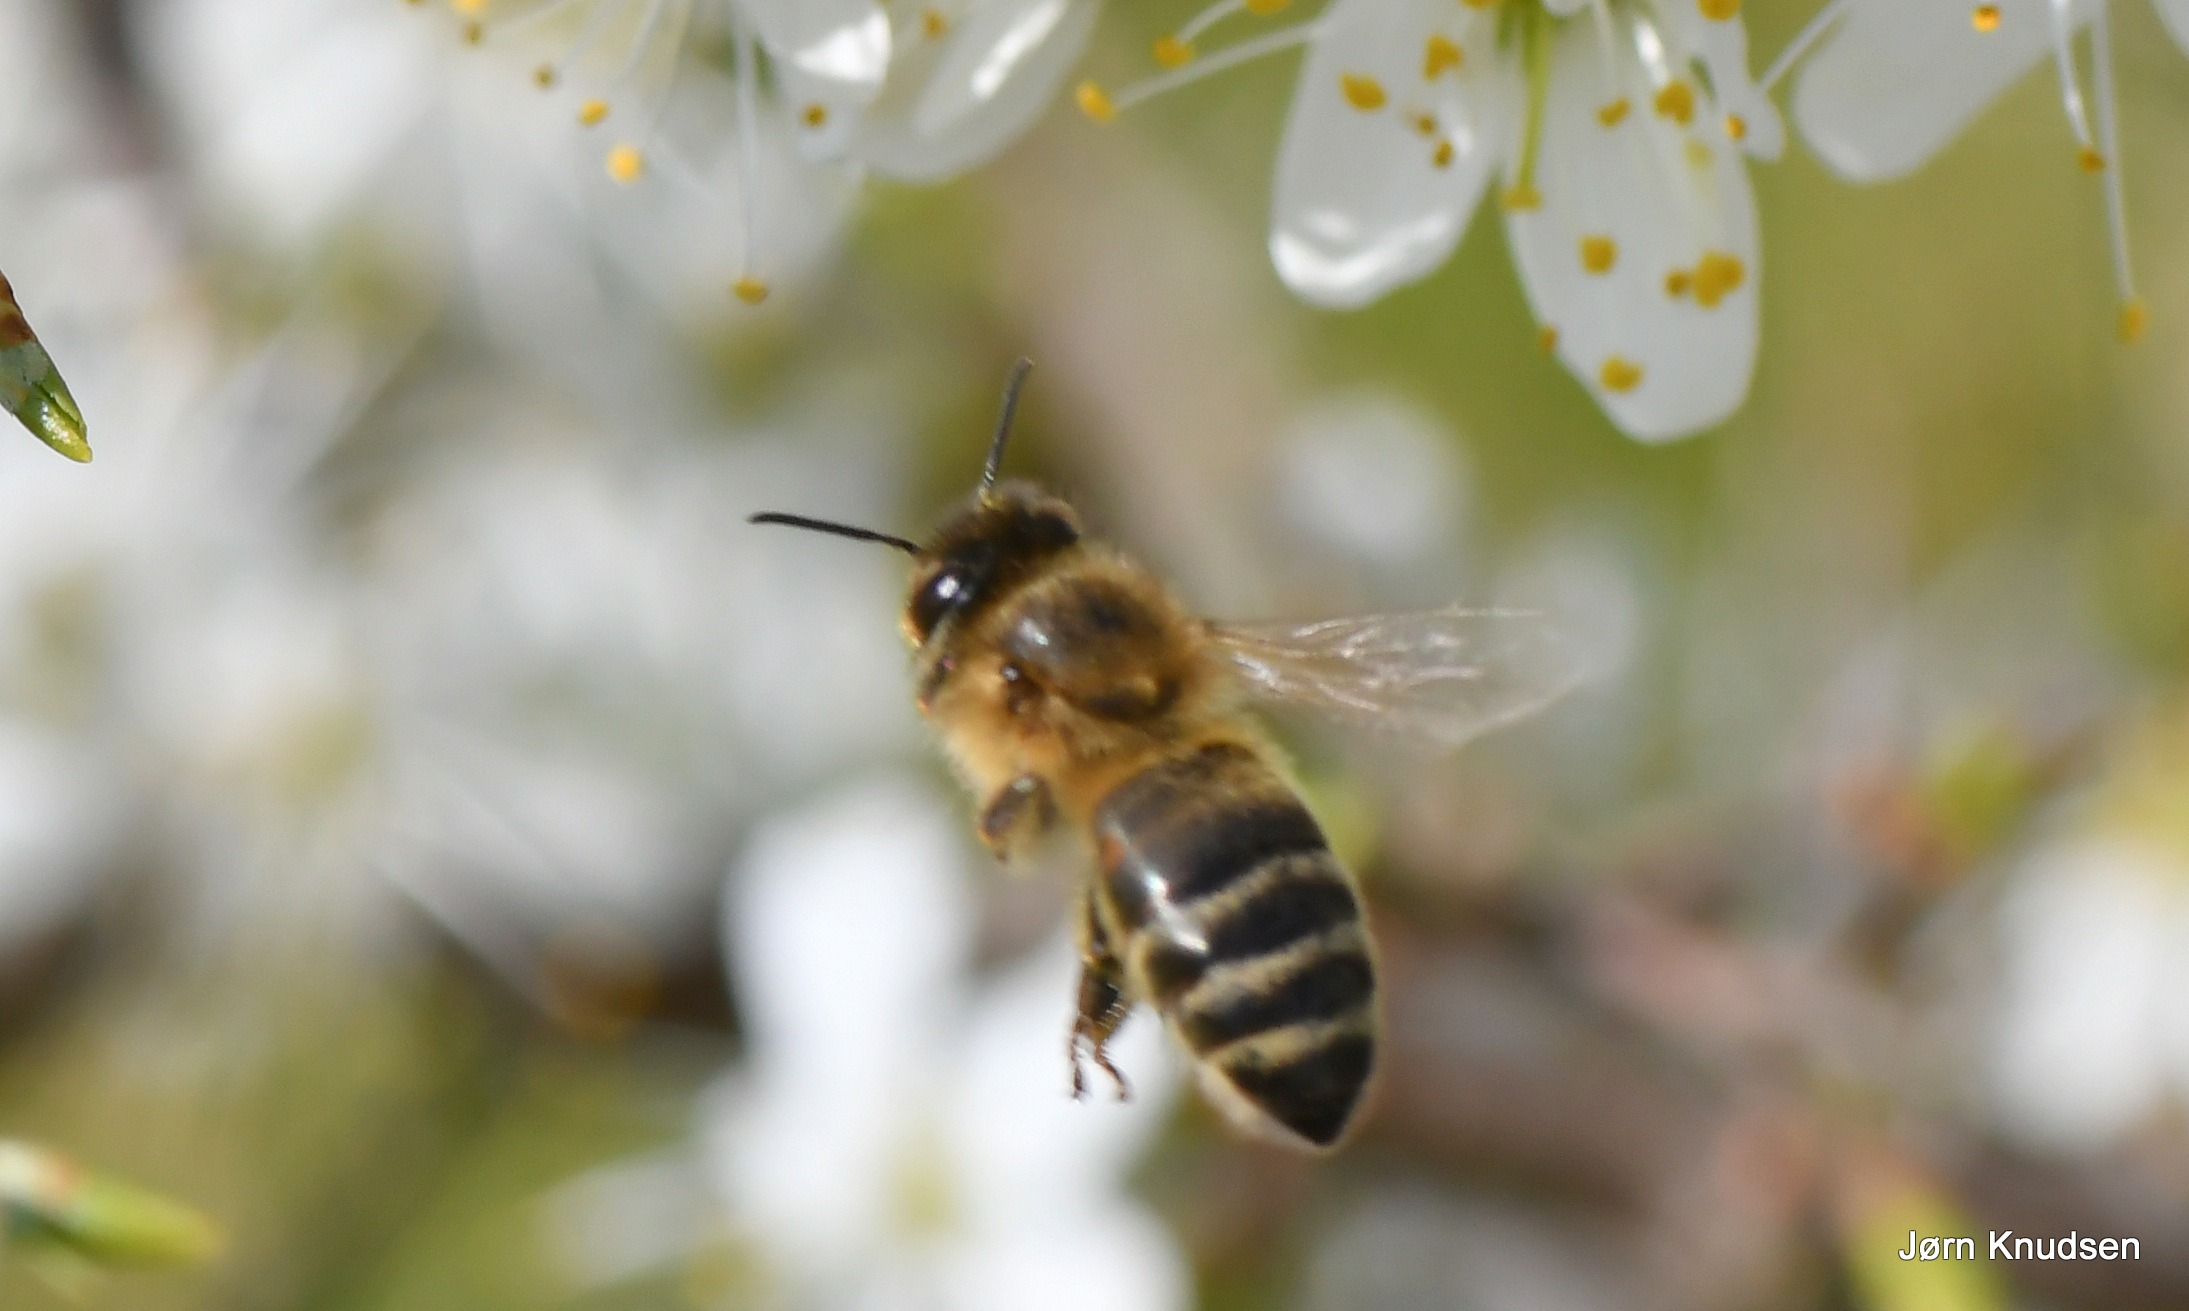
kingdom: Animalia
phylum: Arthropoda
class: Insecta
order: Hymenoptera
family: Apidae
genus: Apis
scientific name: Apis mellifera
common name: Honningbi
